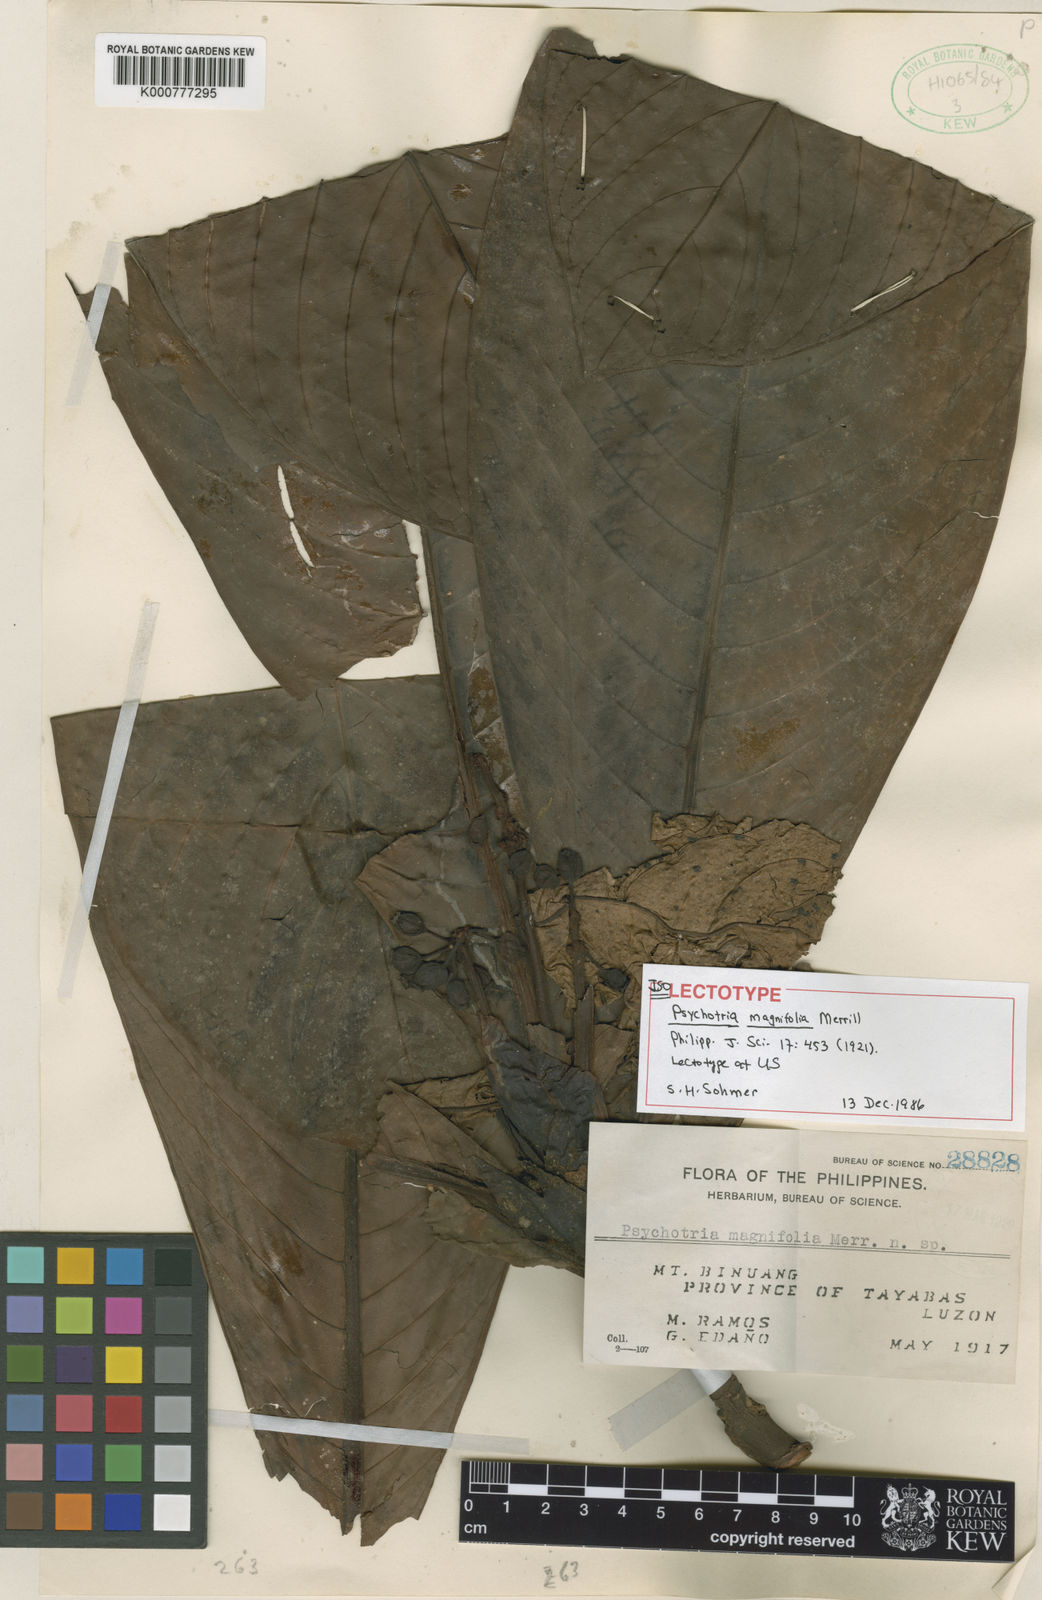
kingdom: Plantae
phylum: Tracheophyta
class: Magnoliopsida
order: Gentianales
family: Rubiaceae
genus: Psychotria
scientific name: Psychotria conglomeratiflora
